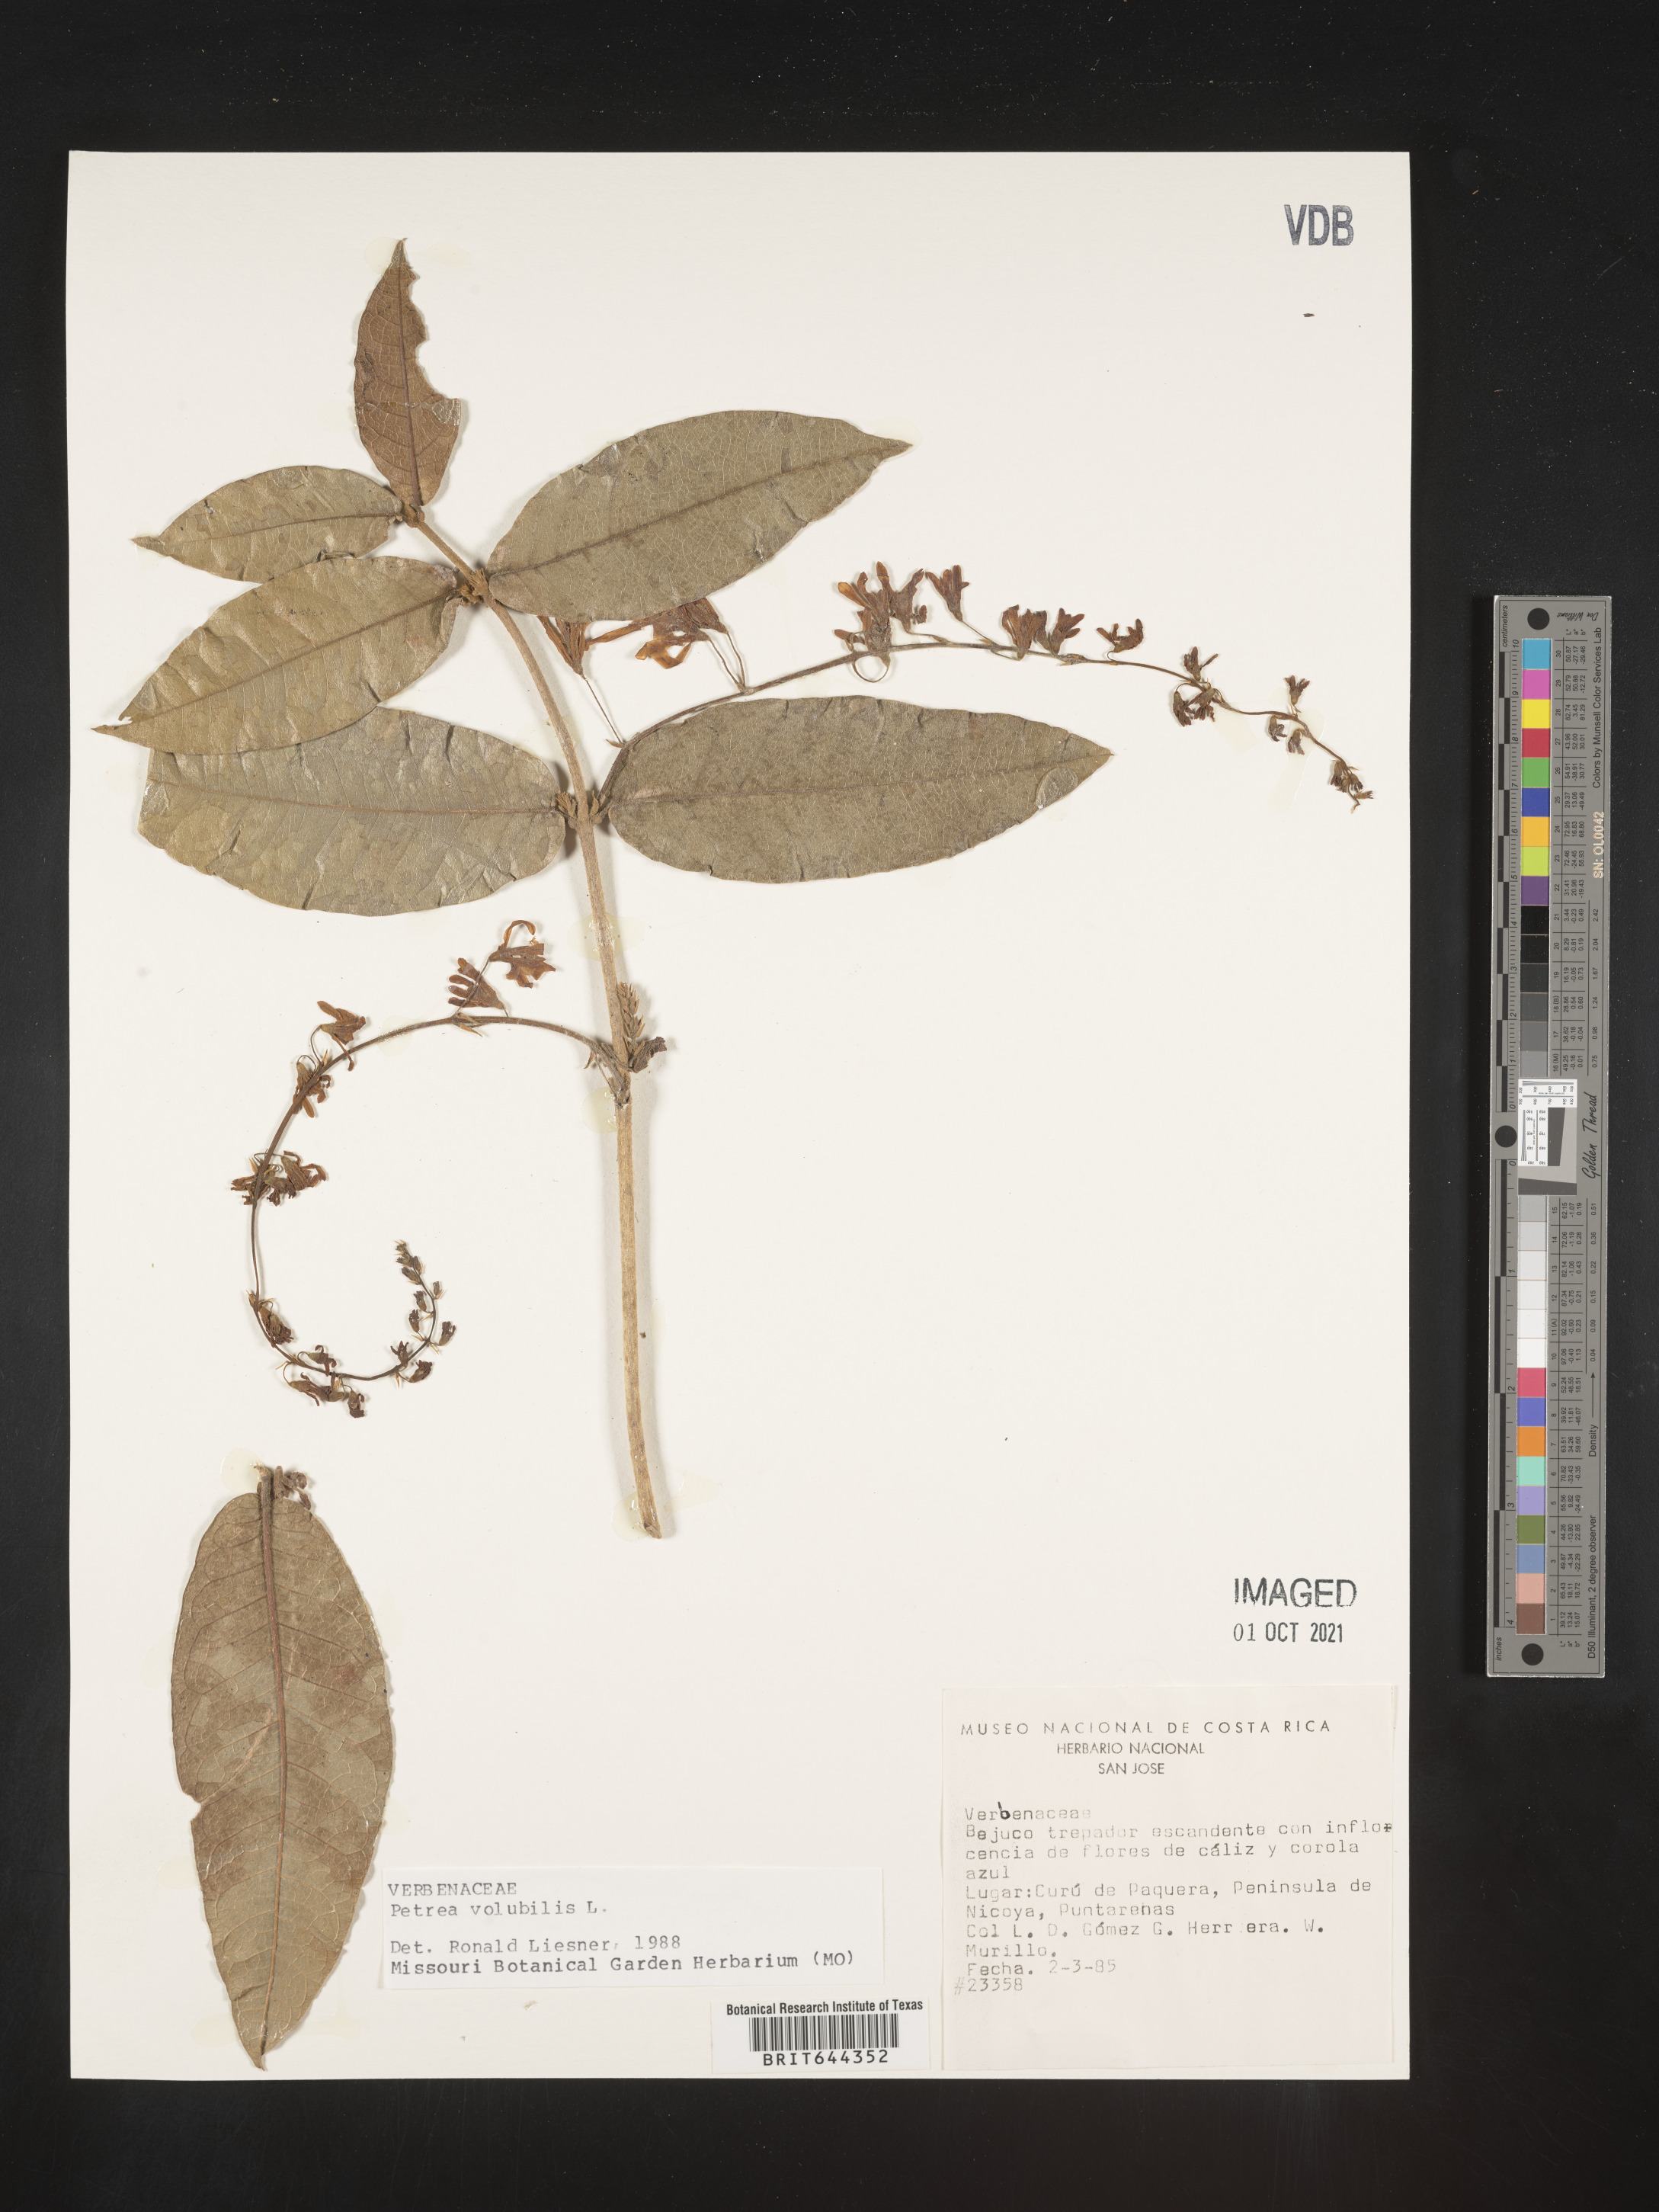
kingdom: Plantae
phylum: Tracheophyta
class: Magnoliopsida
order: Lamiales
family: Verbenaceae
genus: Petrea
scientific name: Petrea
